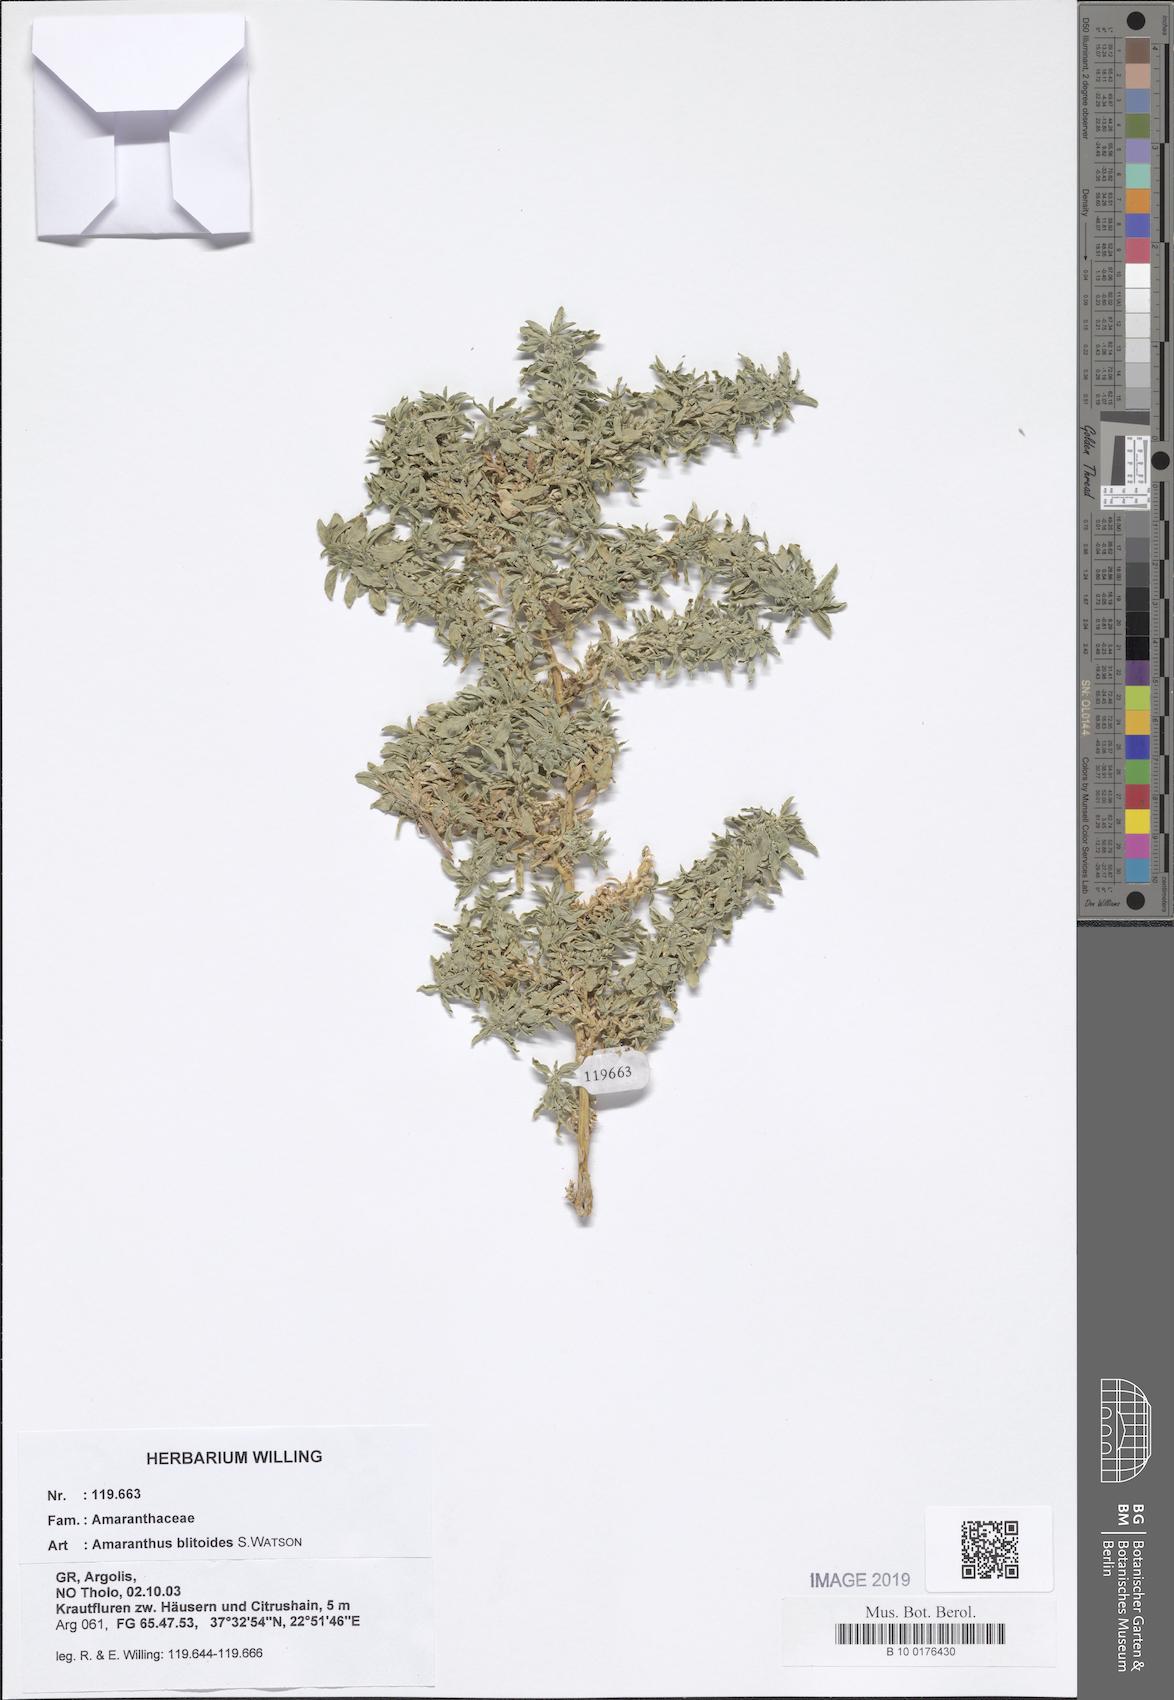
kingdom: Plantae
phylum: Tracheophyta
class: Magnoliopsida
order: Caryophyllales
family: Amaranthaceae
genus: Amaranthus
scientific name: Amaranthus blitoides
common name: Prostrate pigweed
